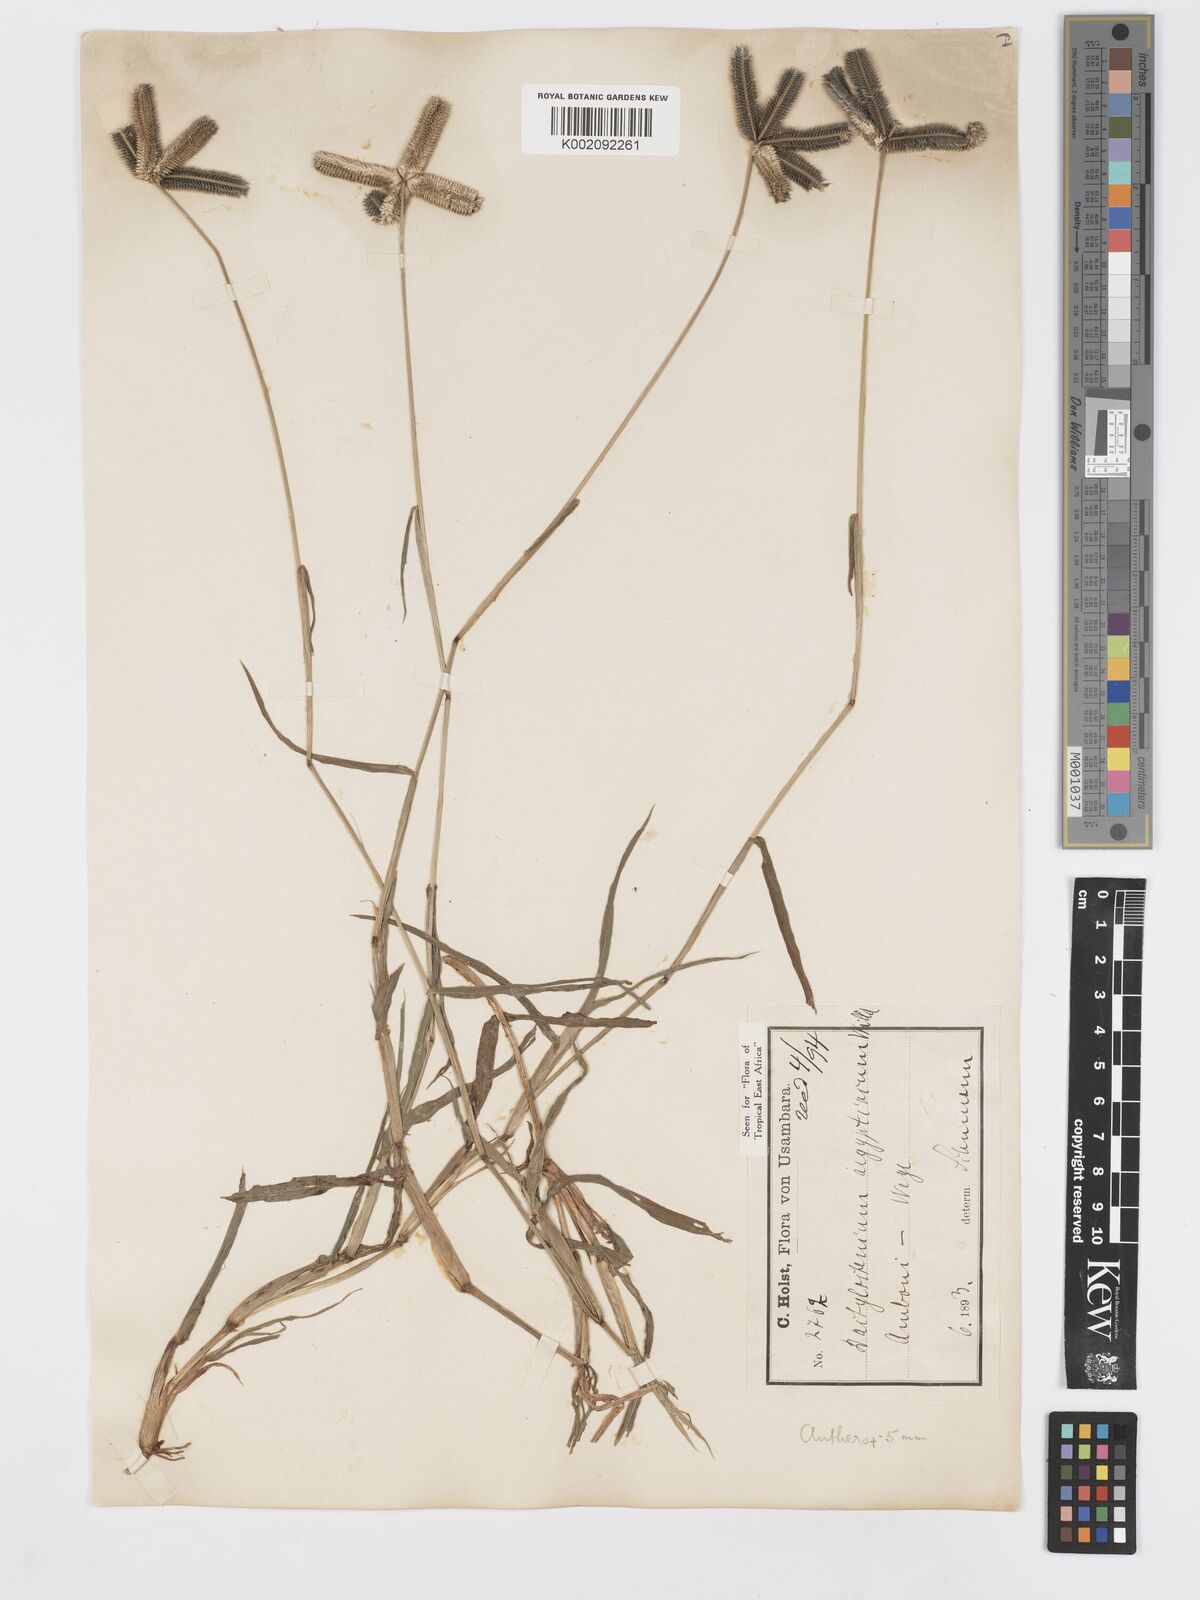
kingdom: Plantae
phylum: Tracheophyta
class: Liliopsida
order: Poales
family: Poaceae
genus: Dactyloctenium
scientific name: Dactyloctenium aegyptium
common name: Egyptian grass
